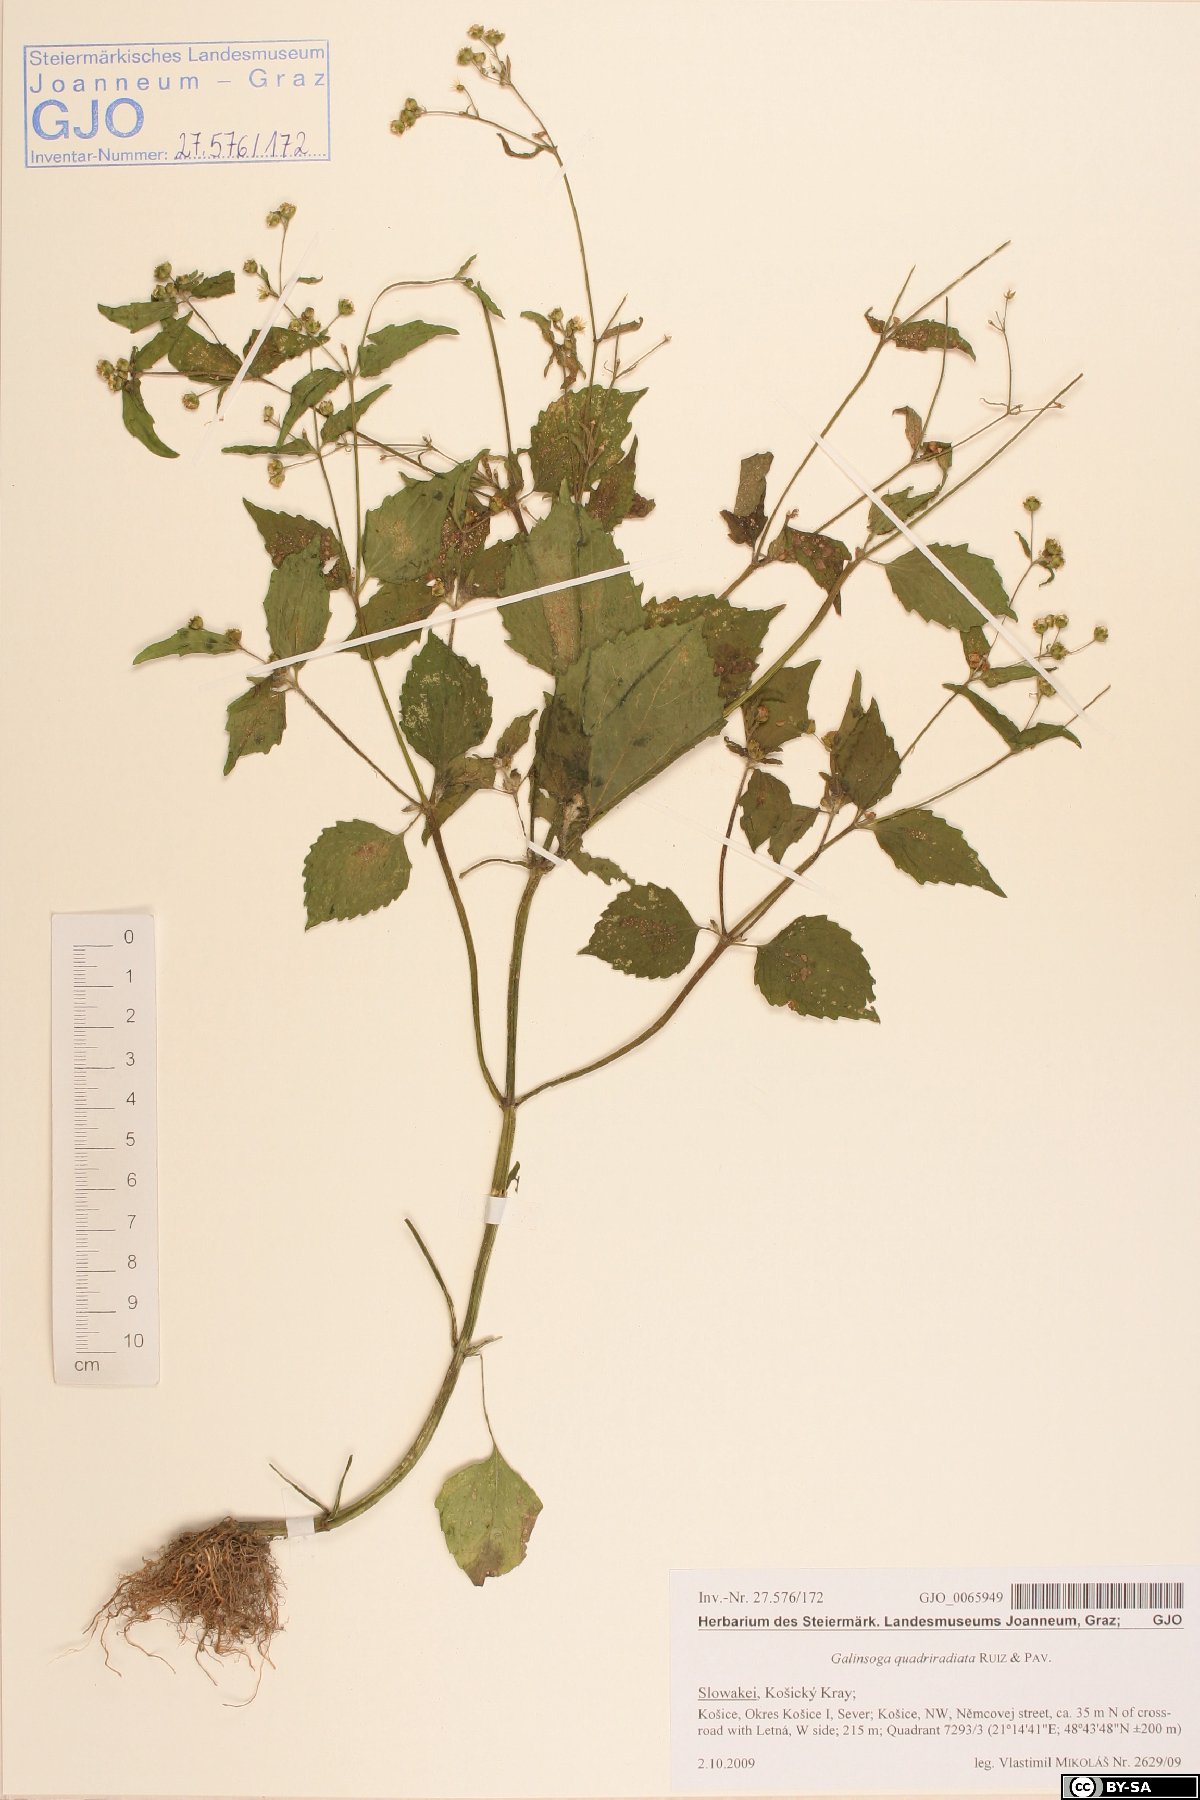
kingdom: Plantae
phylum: Tracheophyta
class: Magnoliopsida
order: Asterales
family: Asteraceae
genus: Galinsoga
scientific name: Galinsoga quadriradiata
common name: Shaggy soldier
